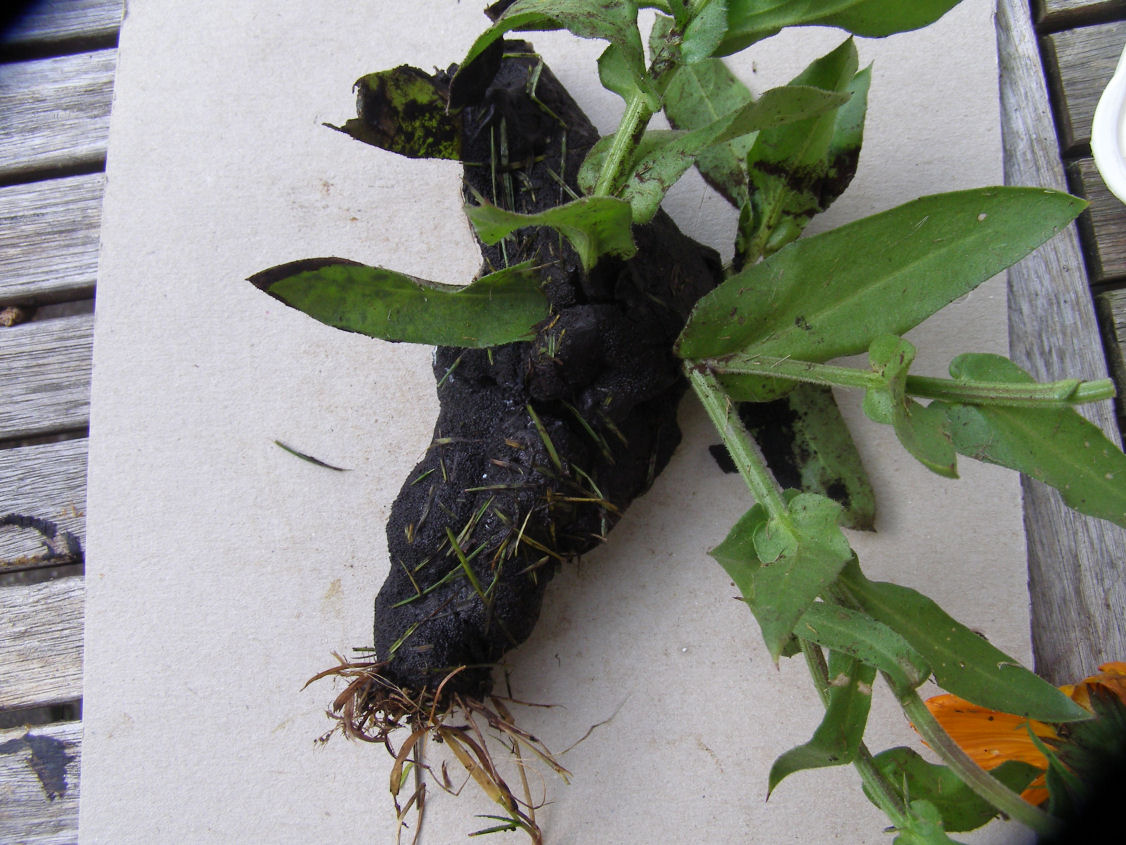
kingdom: Protozoa
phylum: Mycetozoa
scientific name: Mycetozoa
